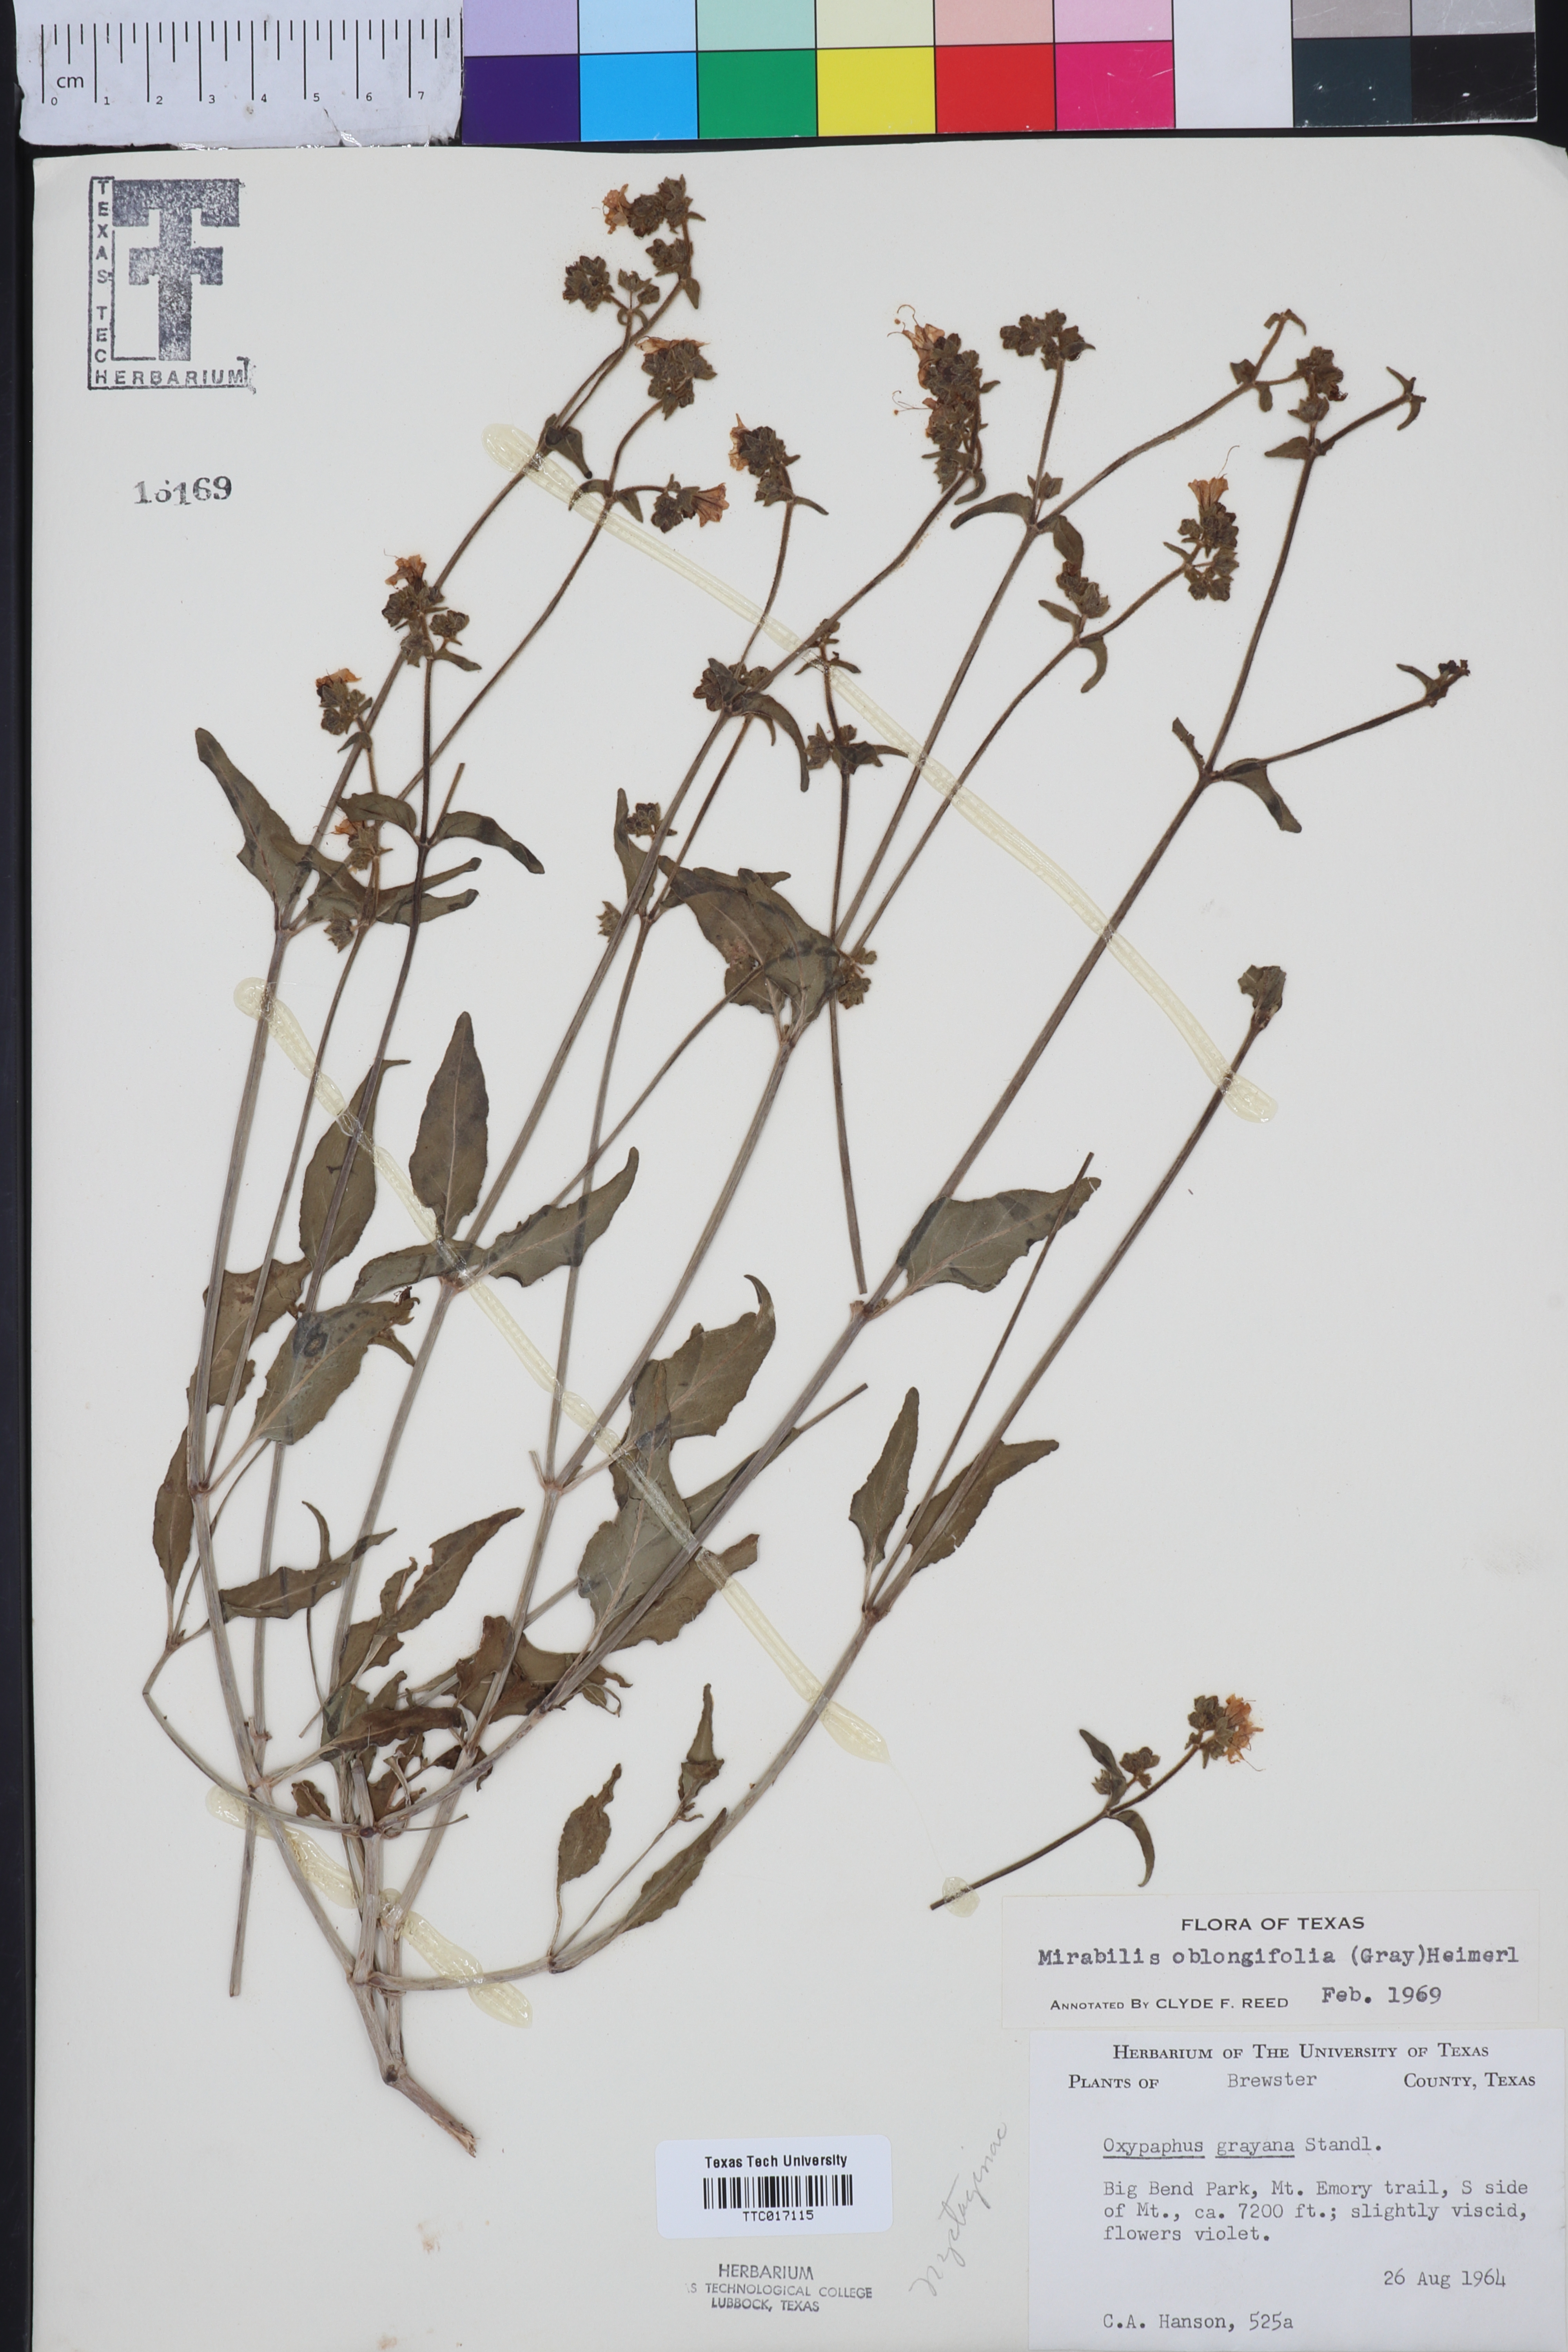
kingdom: Plantae
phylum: Tracheophyta
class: Magnoliopsida
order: Caryophyllales
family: Nyctaginaceae
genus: Mirabilis
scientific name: Mirabilis albida
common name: Hairy four-o'clock
